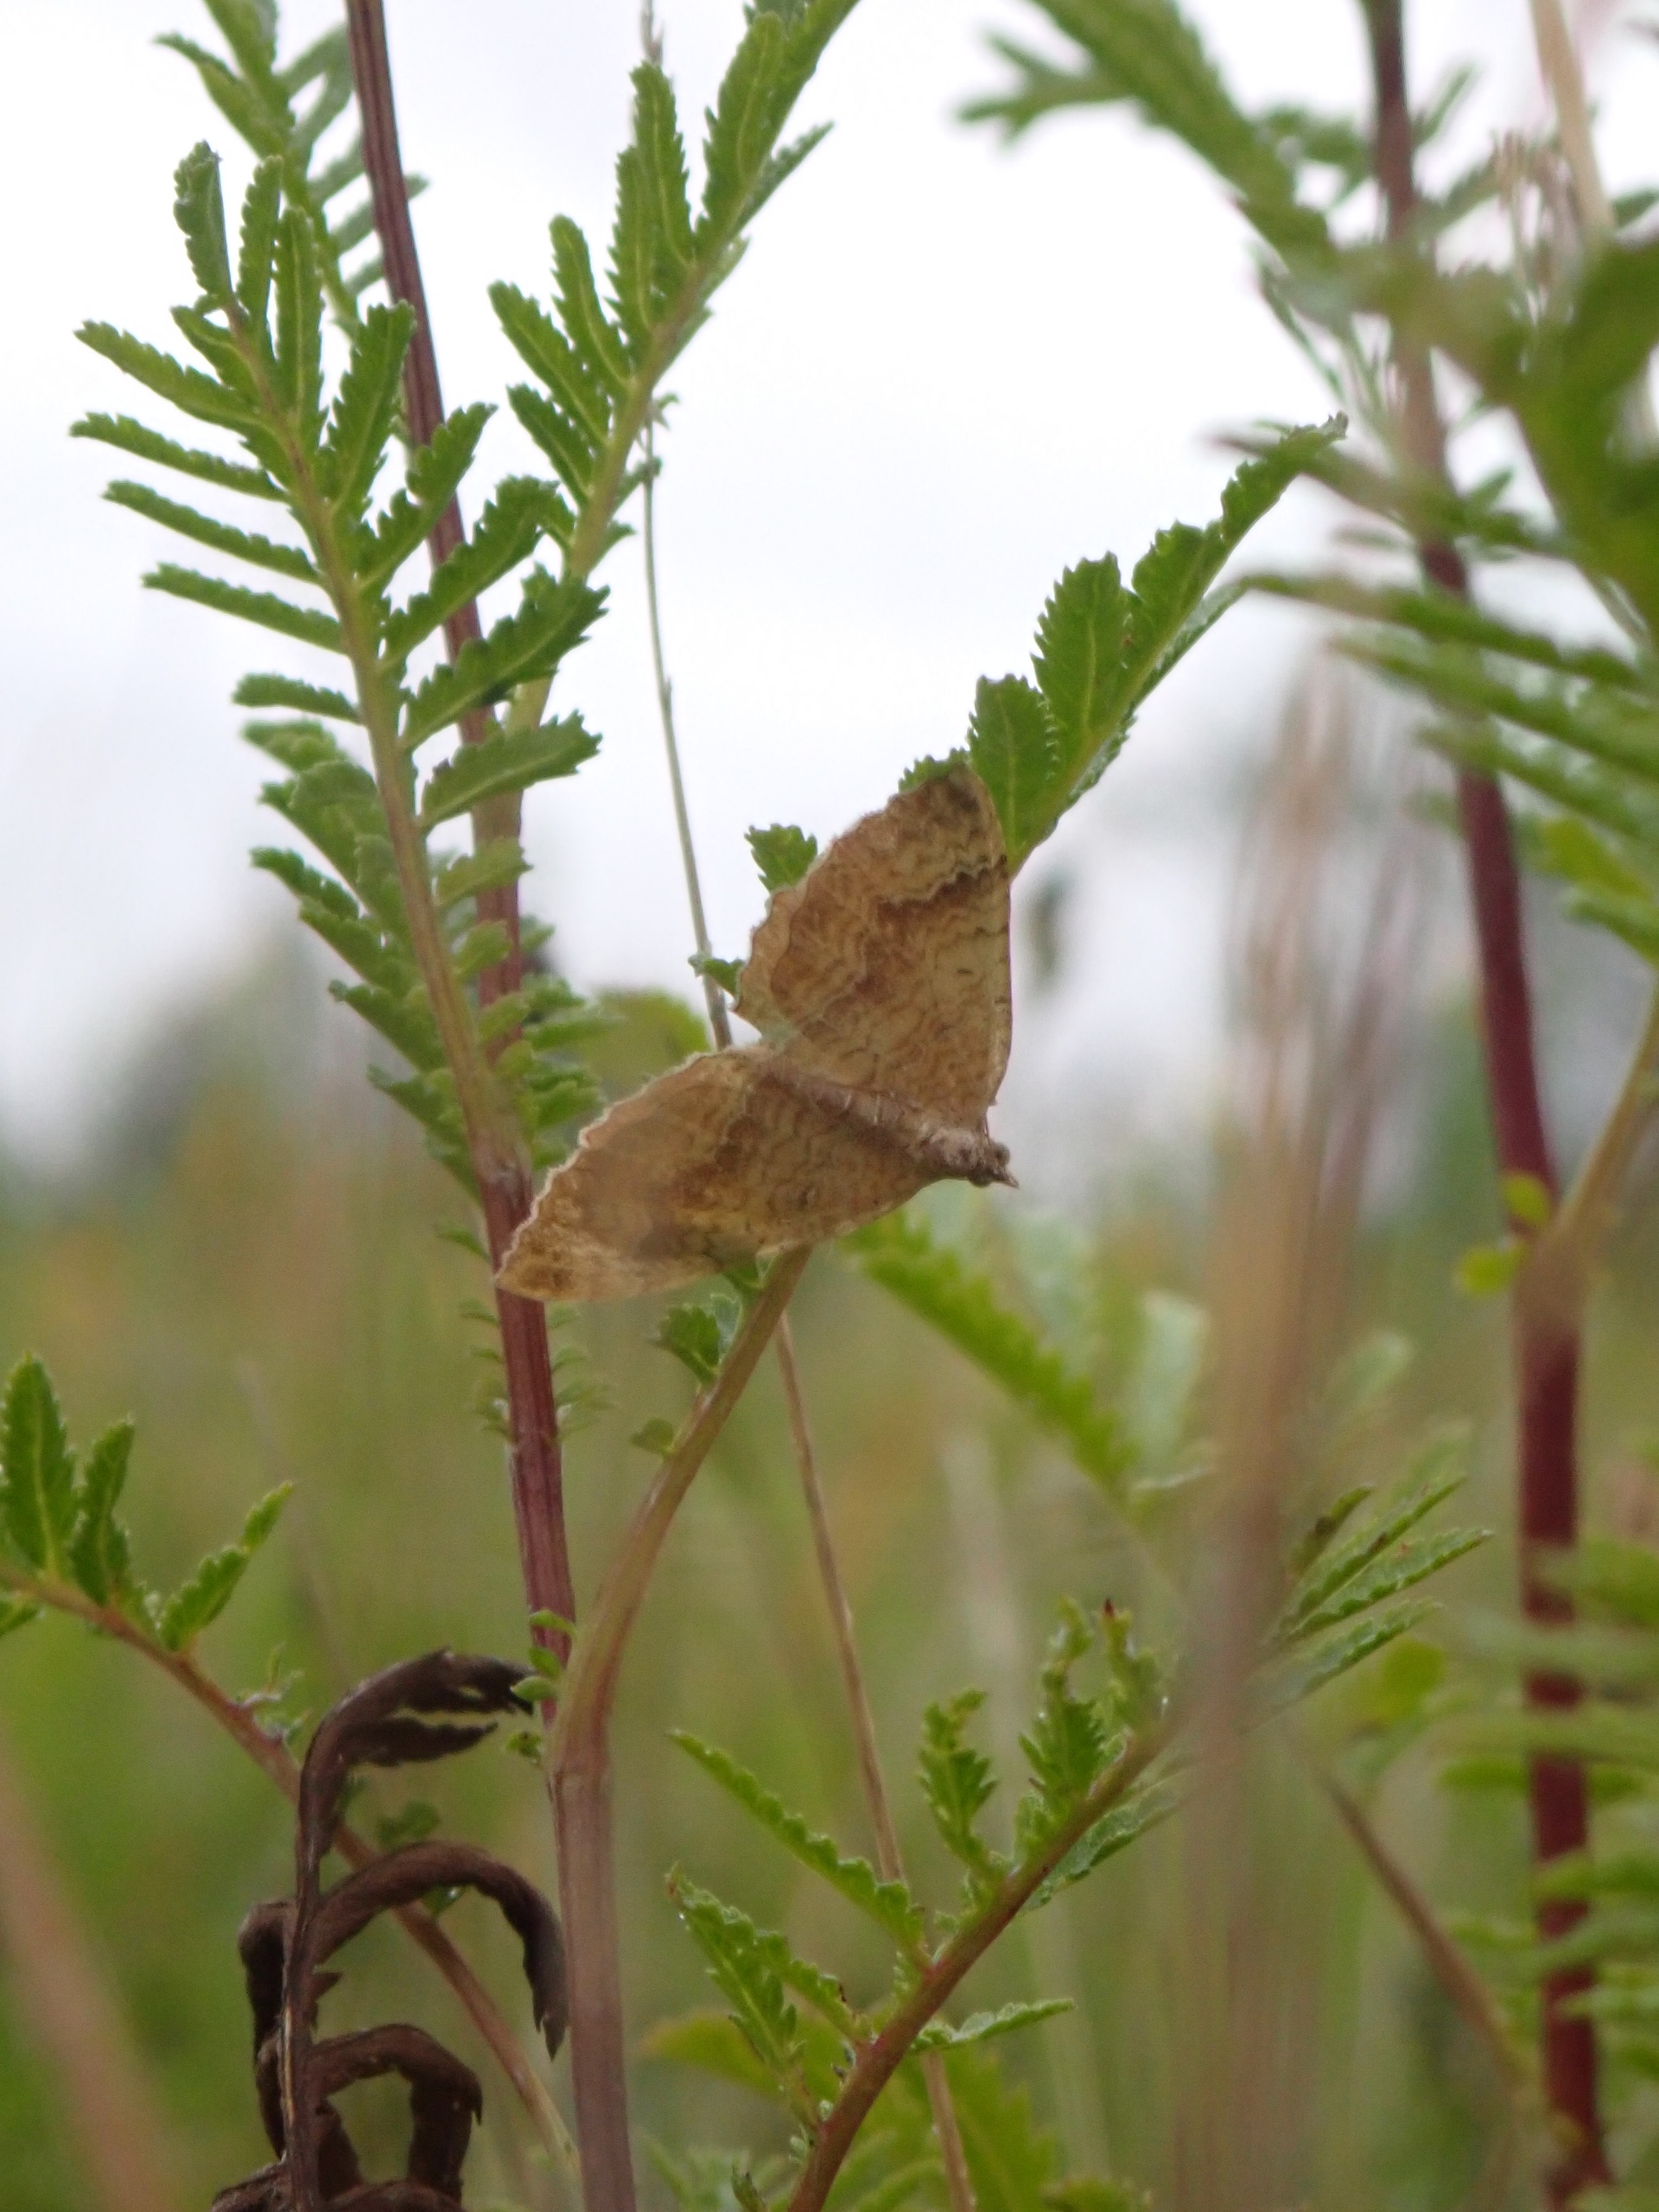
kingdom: Animalia
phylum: Arthropoda
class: Insecta
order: Lepidoptera
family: Geometridae
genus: Camptogramma
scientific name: Camptogramma bilineata
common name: Okkergul bladmåler
